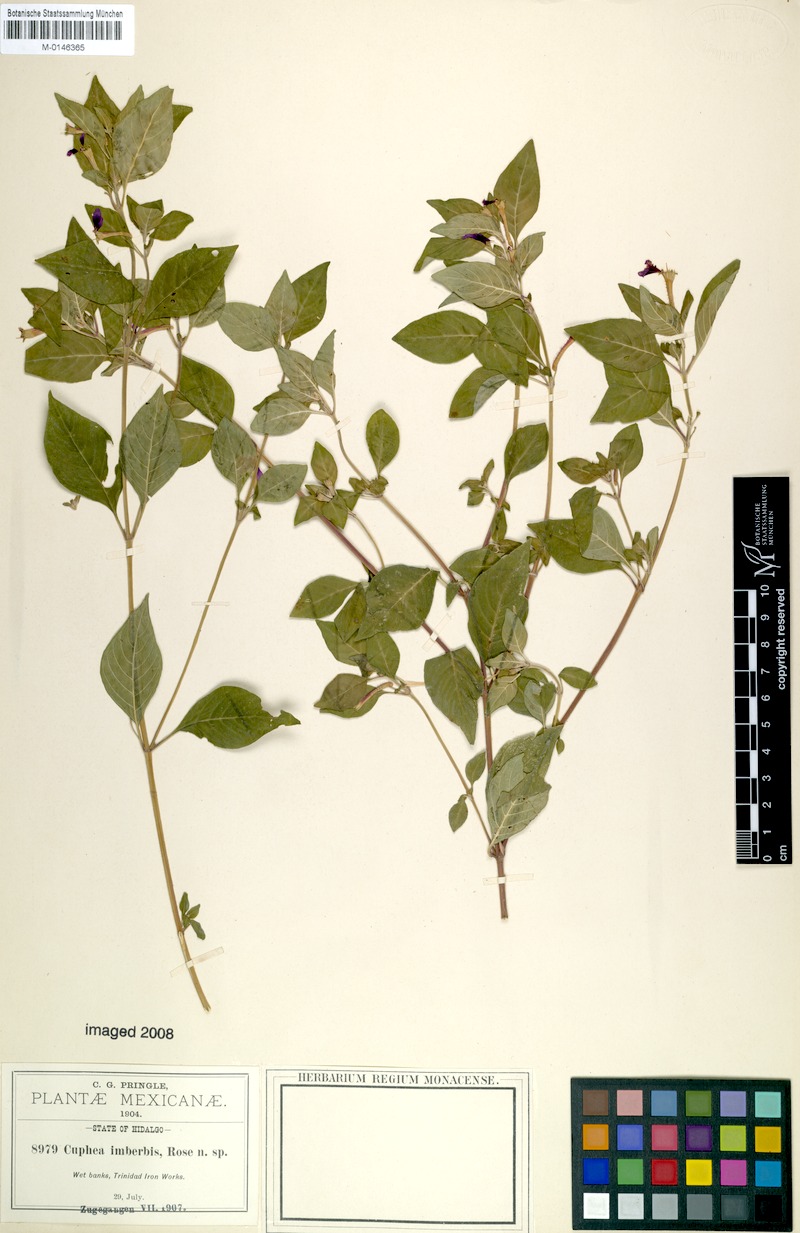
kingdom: Plantae
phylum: Tracheophyta
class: Magnoliopsida
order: Myrtales
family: Lythraceae
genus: Cuphea
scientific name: Cuphea imberbis
